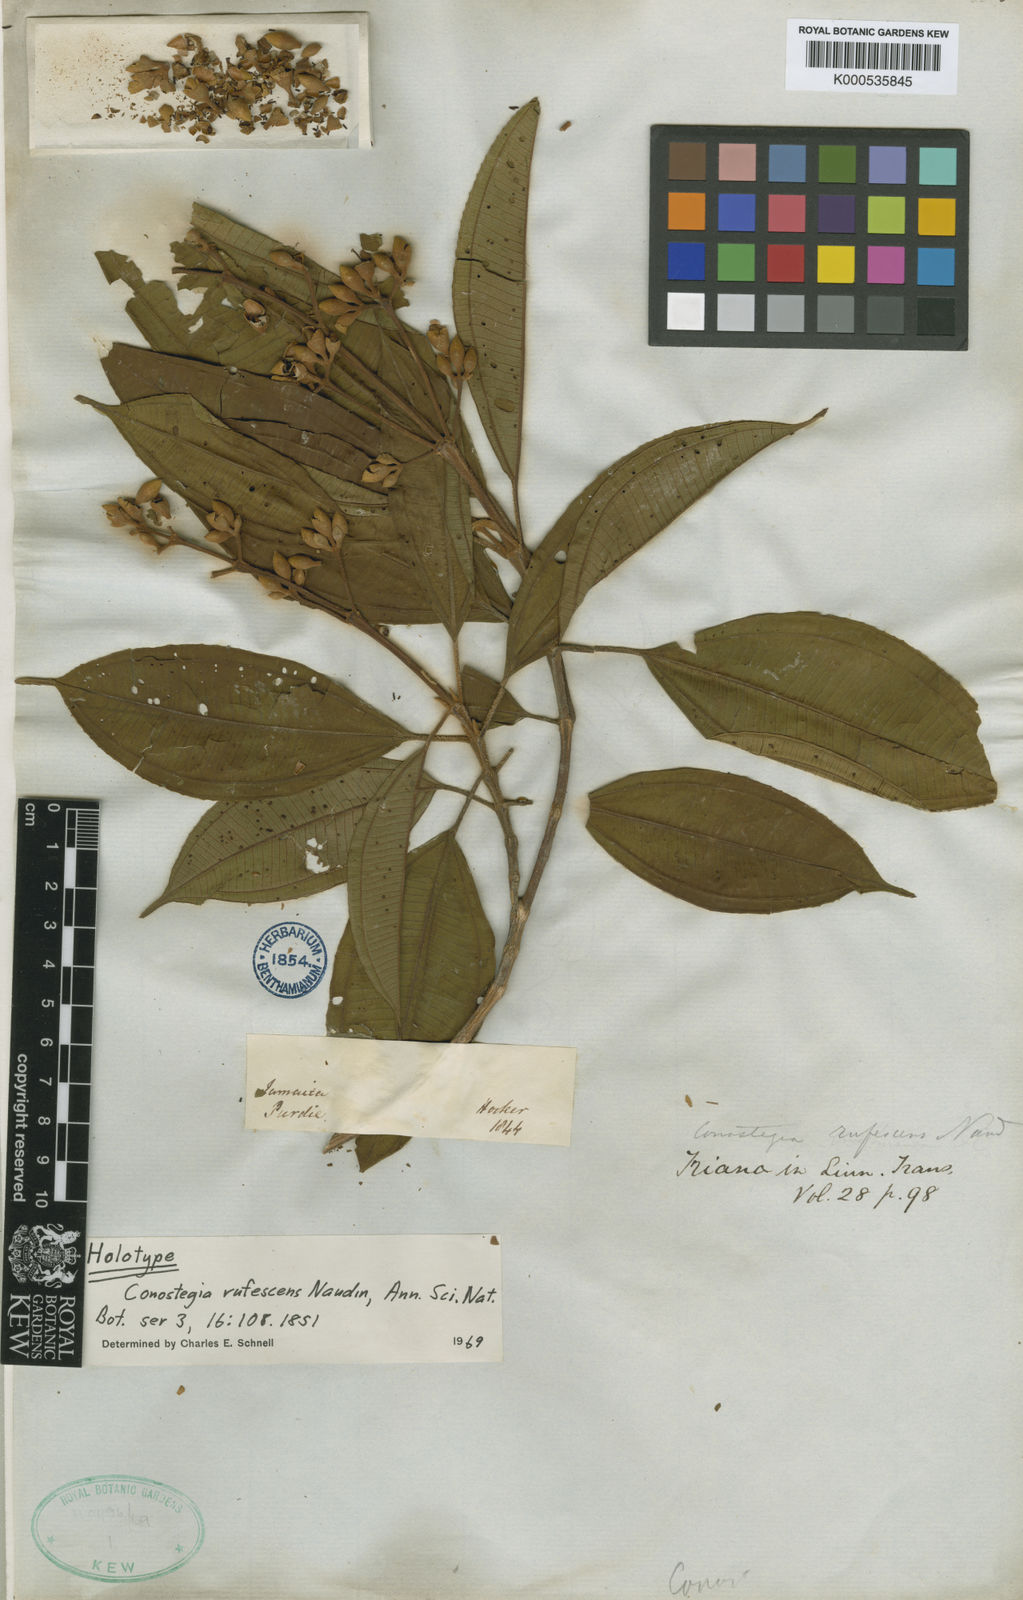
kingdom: Plantae
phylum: Tracheophyta
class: Magnoliopsida
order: Myrtales
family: Melastomataceae
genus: Miconia
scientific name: Miconia conorufescens
